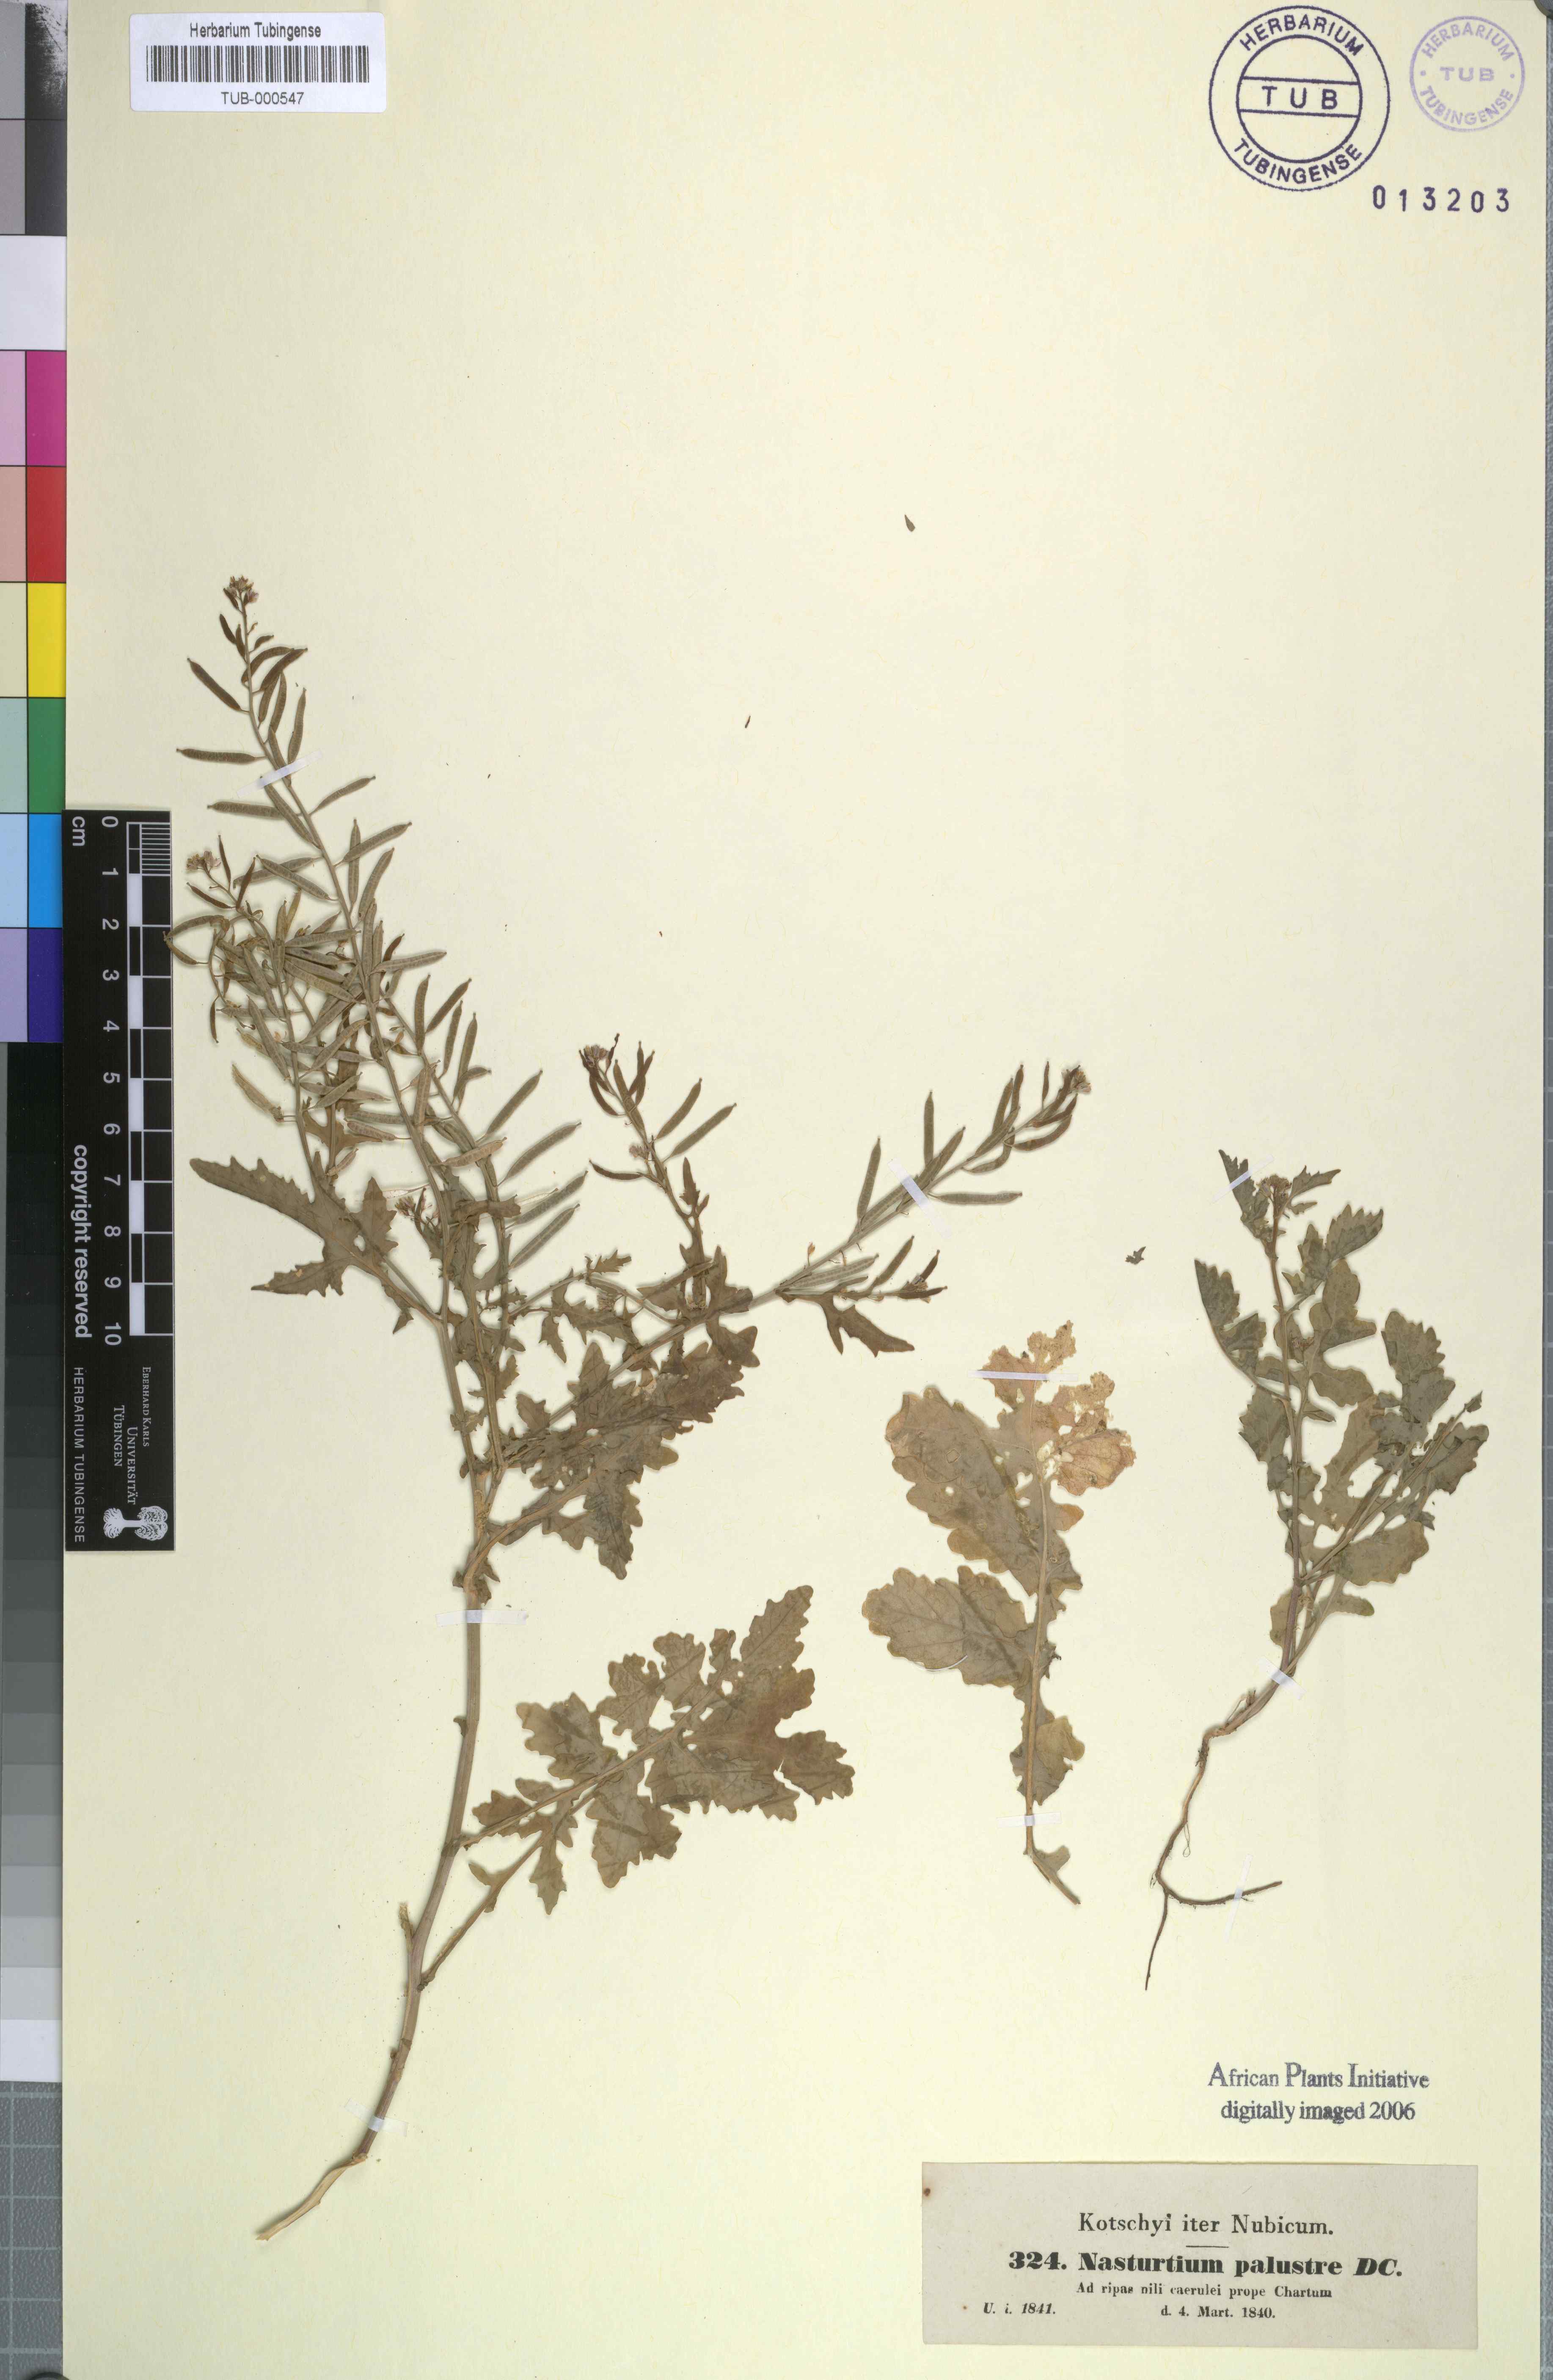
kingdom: Plantae
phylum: Tracheophyta
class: Magnoliopsida
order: Brassicales
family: Brassicaceae
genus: Rorippa
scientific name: Rorippa islandica
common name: Marsh cress
